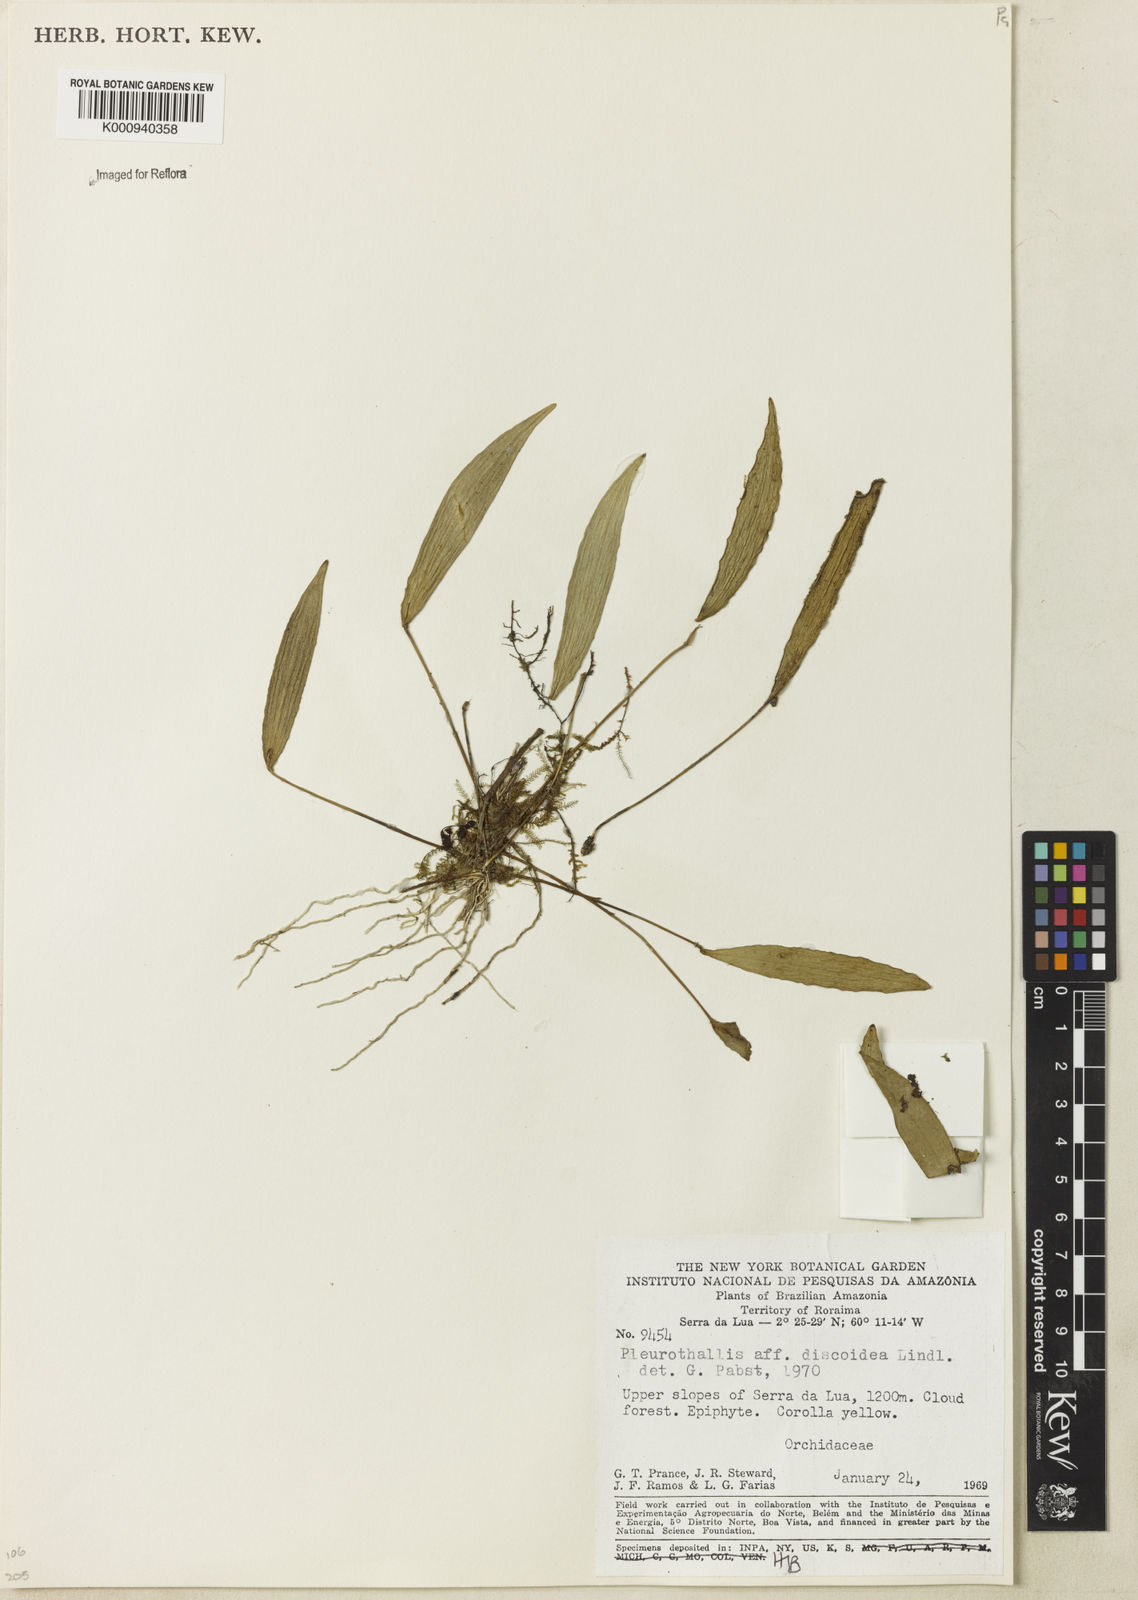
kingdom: Plantae
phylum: Tracheophyta
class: Liliopsida
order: Asparagales
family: Orchidaceae
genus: Pleurothallis
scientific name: Pleurothallis discoidea
